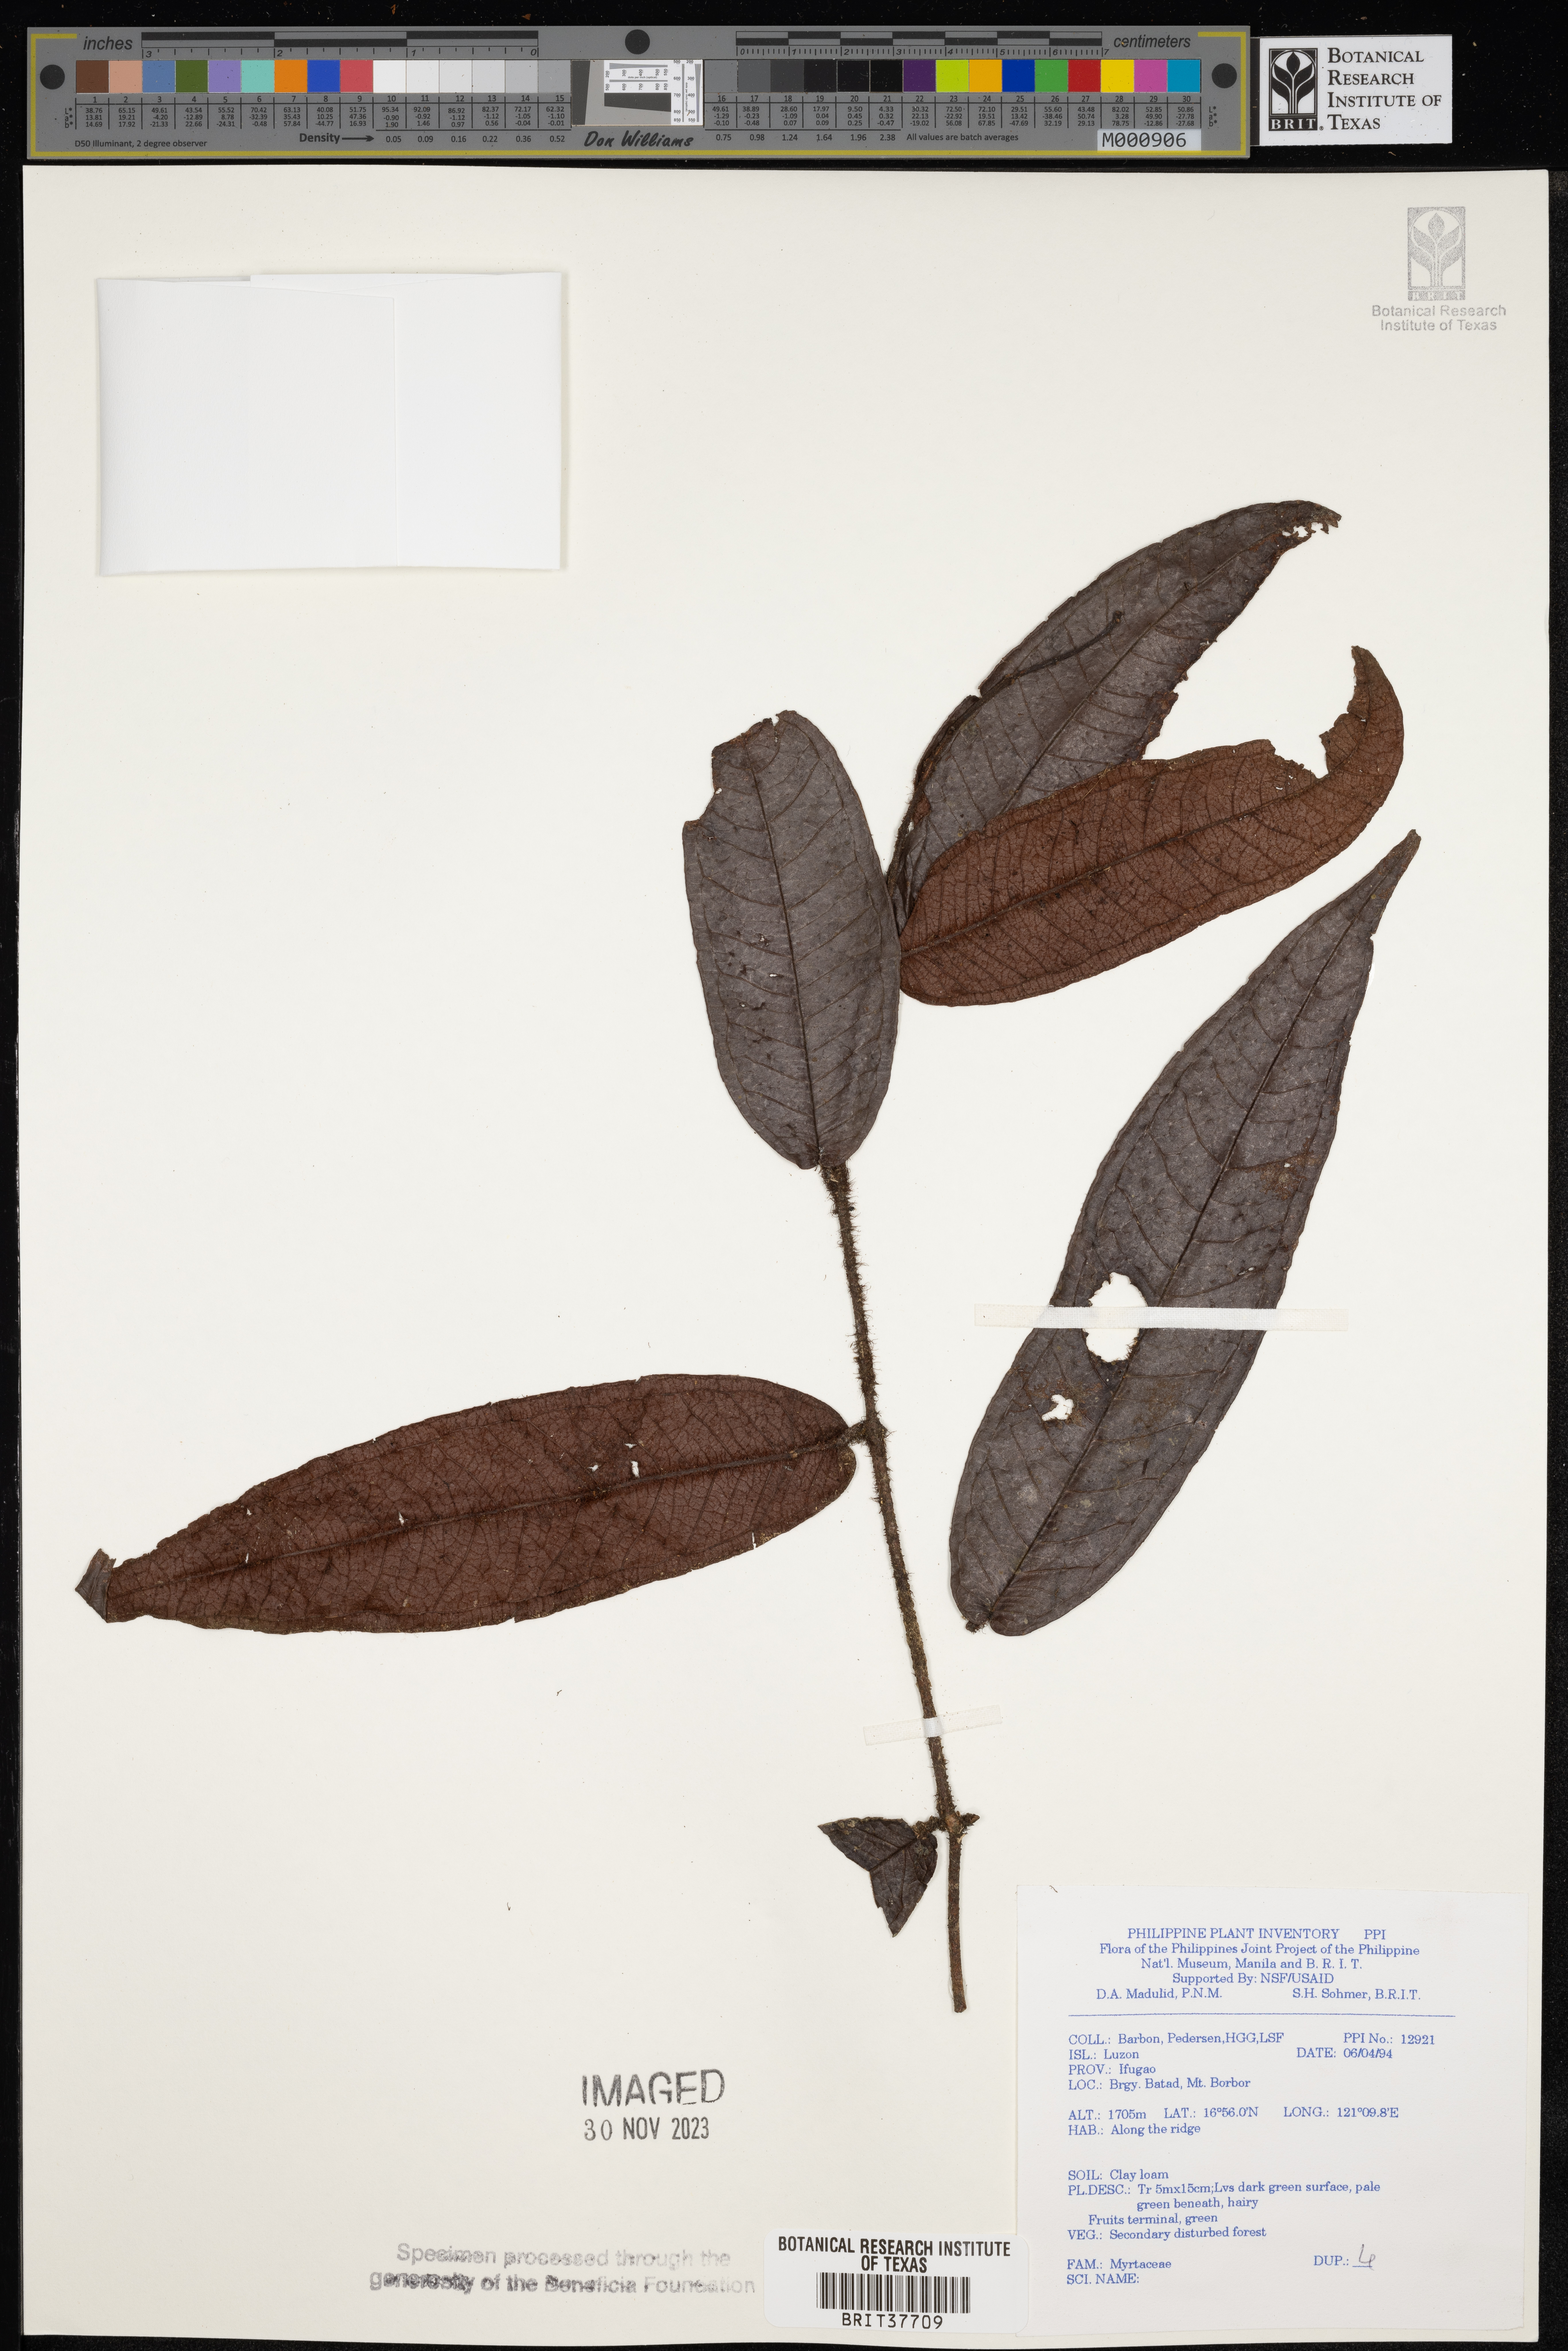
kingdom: Plantae
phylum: Tracheophyta
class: Magnoliopsida
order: Myrtales
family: Myrtaceae
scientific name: Myrtaceae
